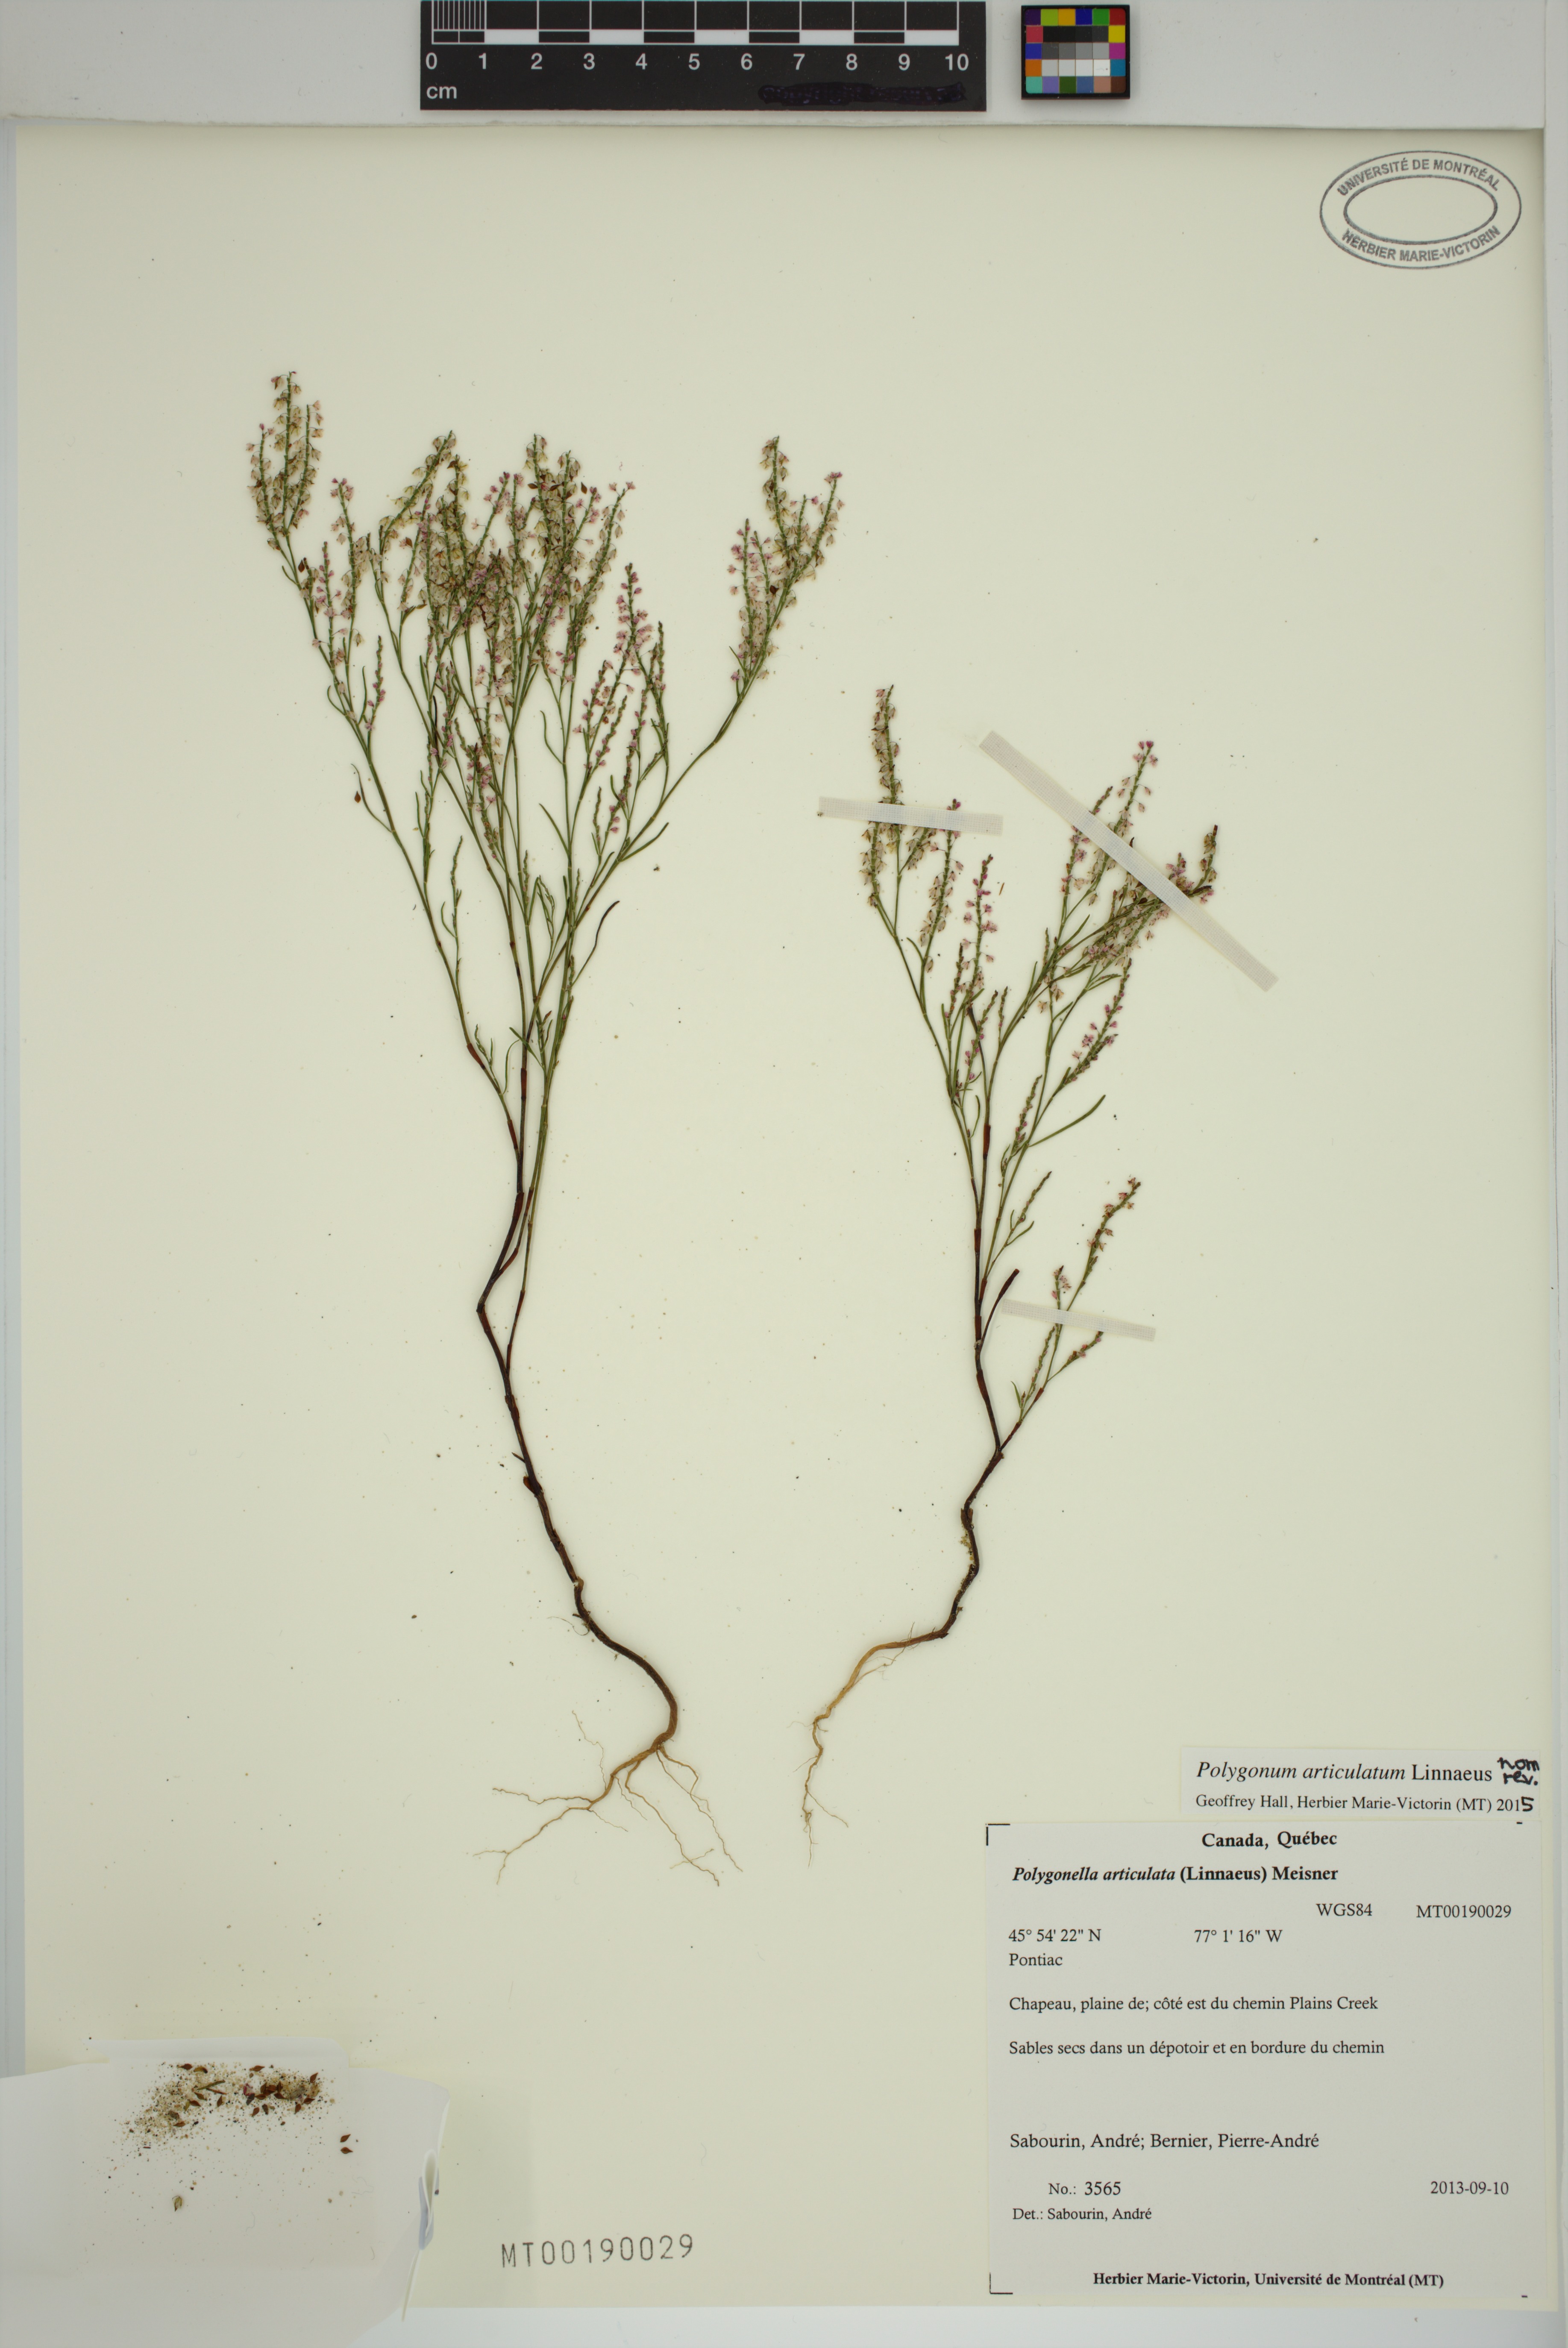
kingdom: Plantae
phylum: Tracheophyta
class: Magnoliopsida
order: Caryophyllales
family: Polygonaceae
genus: Polygonella
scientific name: Polygonella articulata
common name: Coastal jointweed
